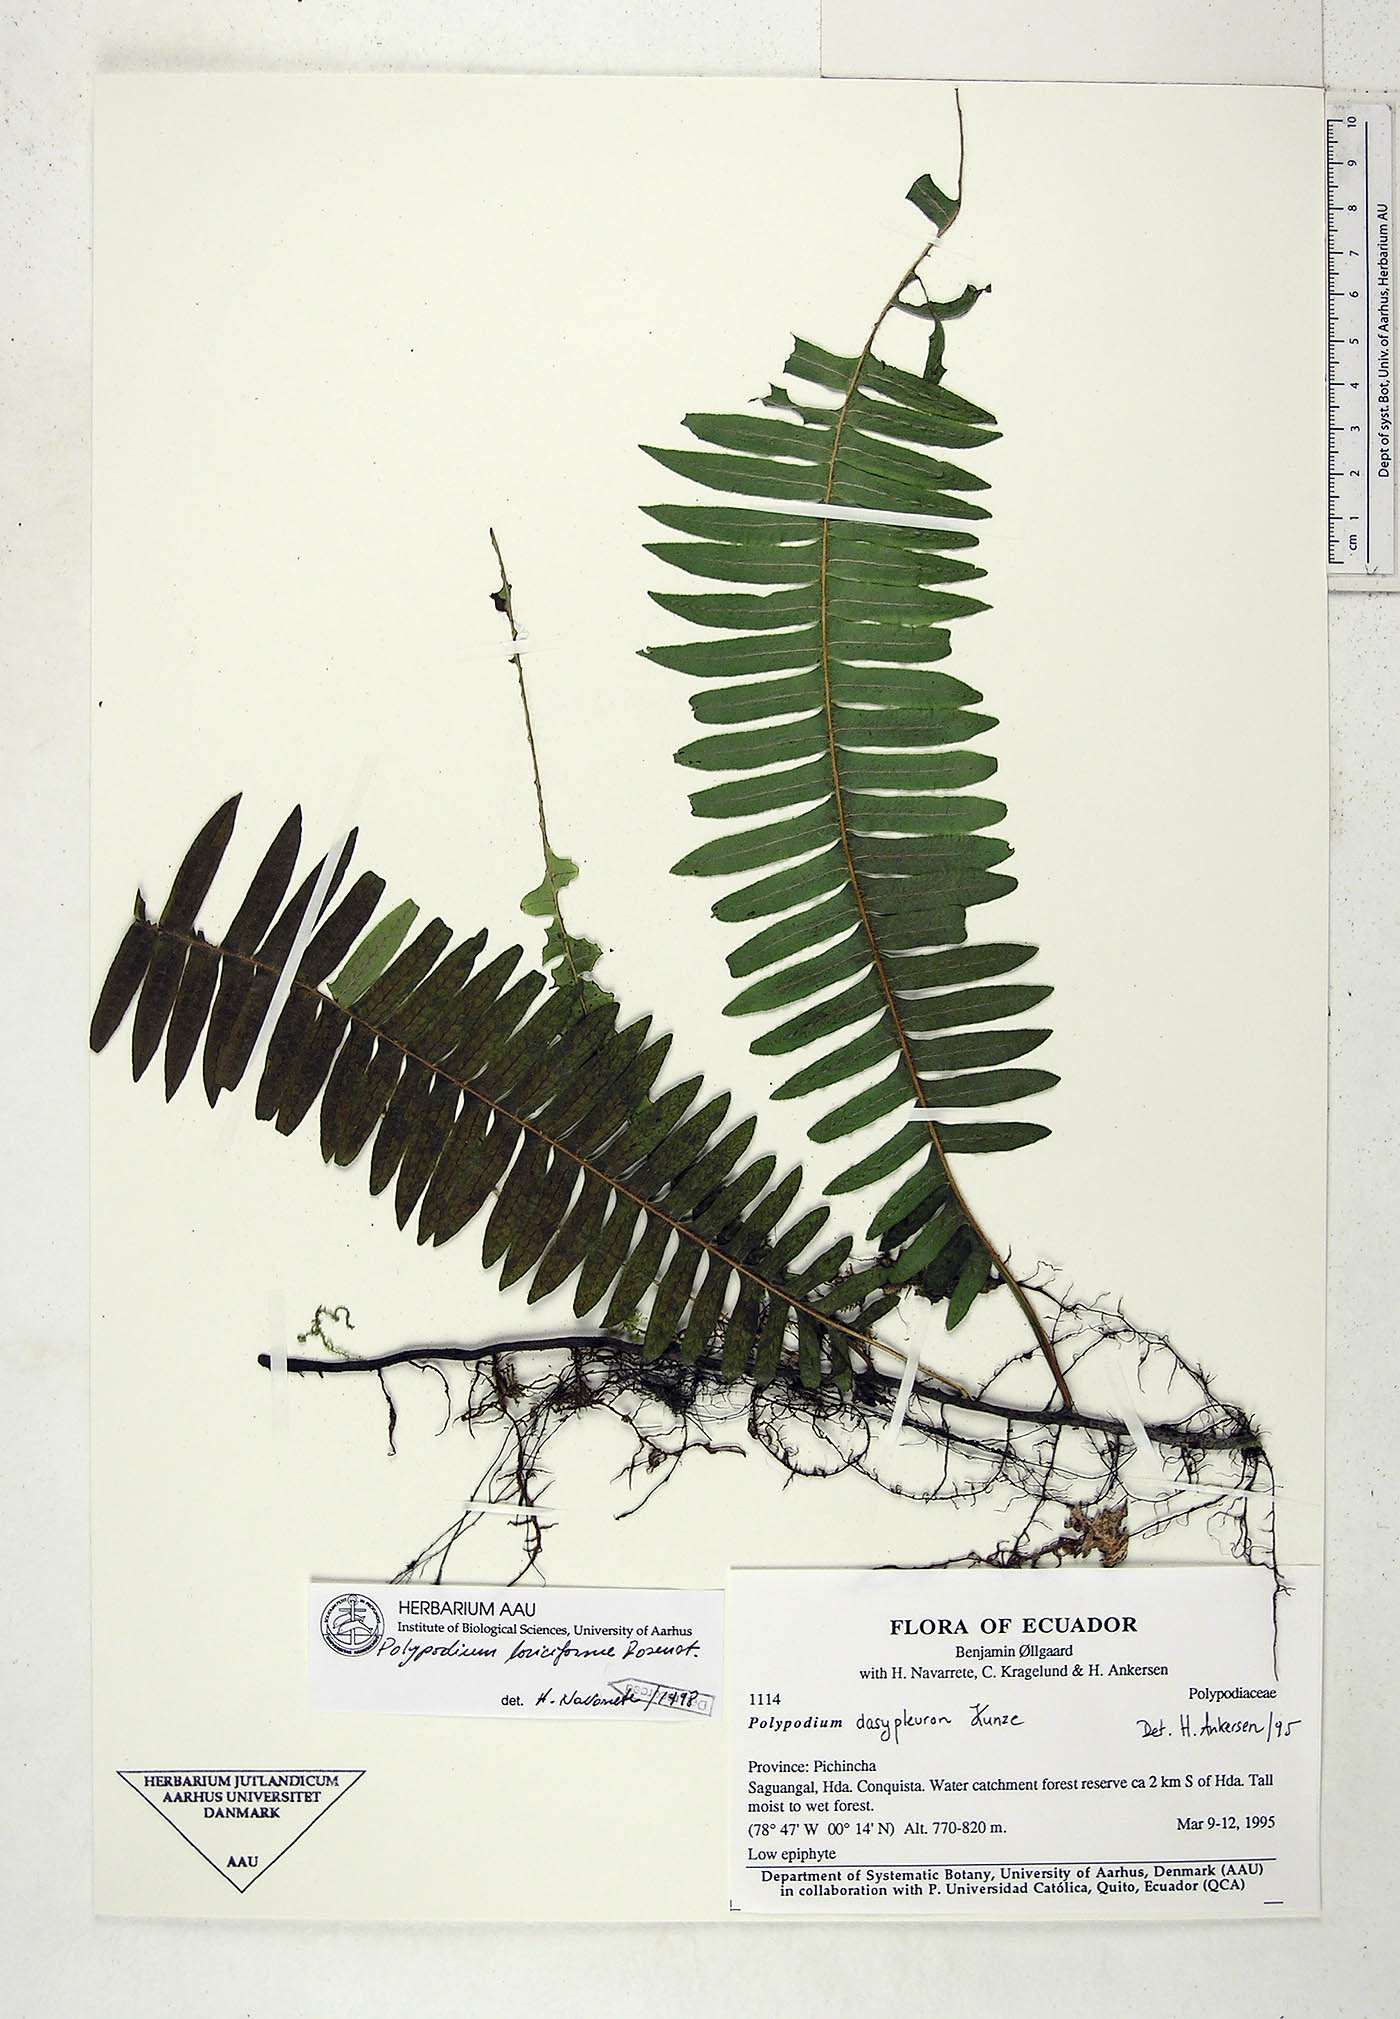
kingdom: Plantae
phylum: Tracheophyta
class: Polypodiopsida
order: Polypodiales
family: Polypodiaceae
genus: Serpocaulon
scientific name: Serpocaulon loriciforme
